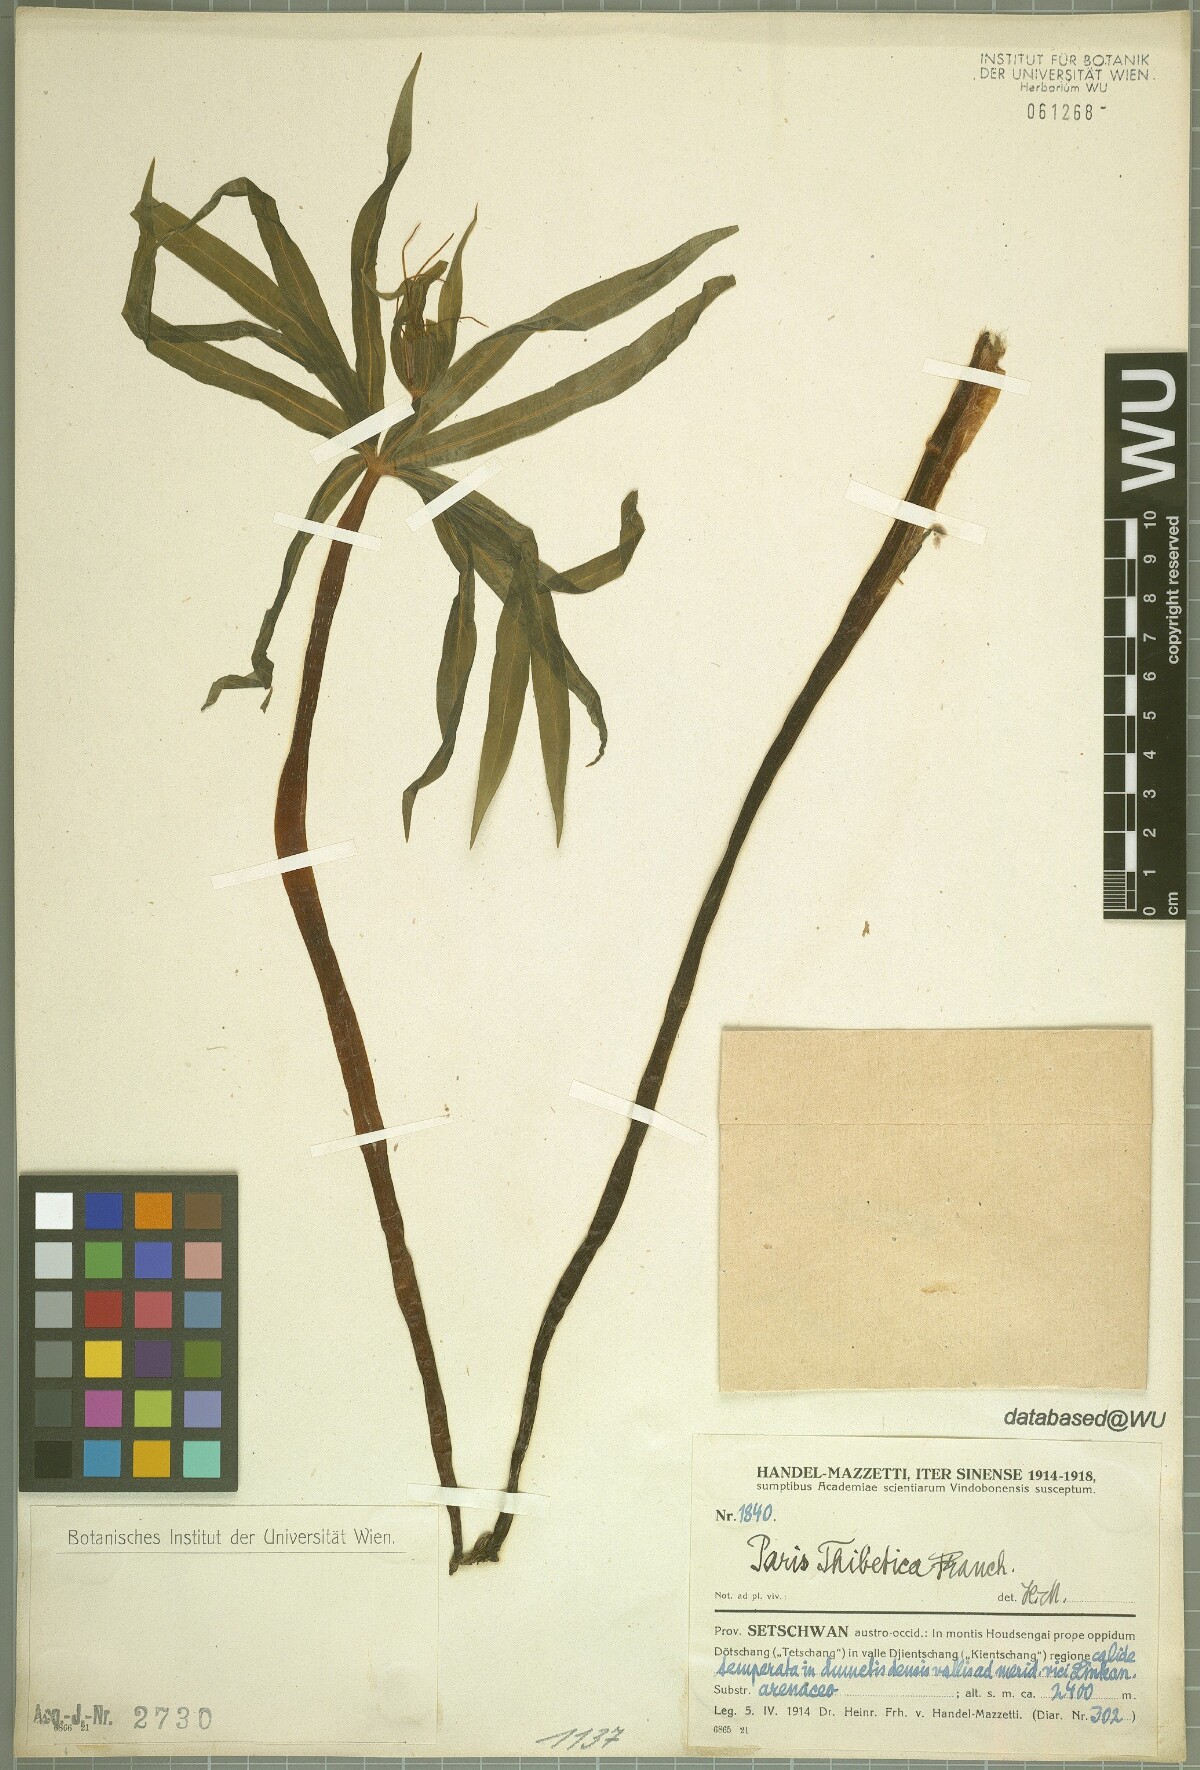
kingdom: Plantae
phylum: Tracheophyta
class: Liliopsida
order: Liliales
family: Melanthiaceae
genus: Paris
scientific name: Paris thibetica
